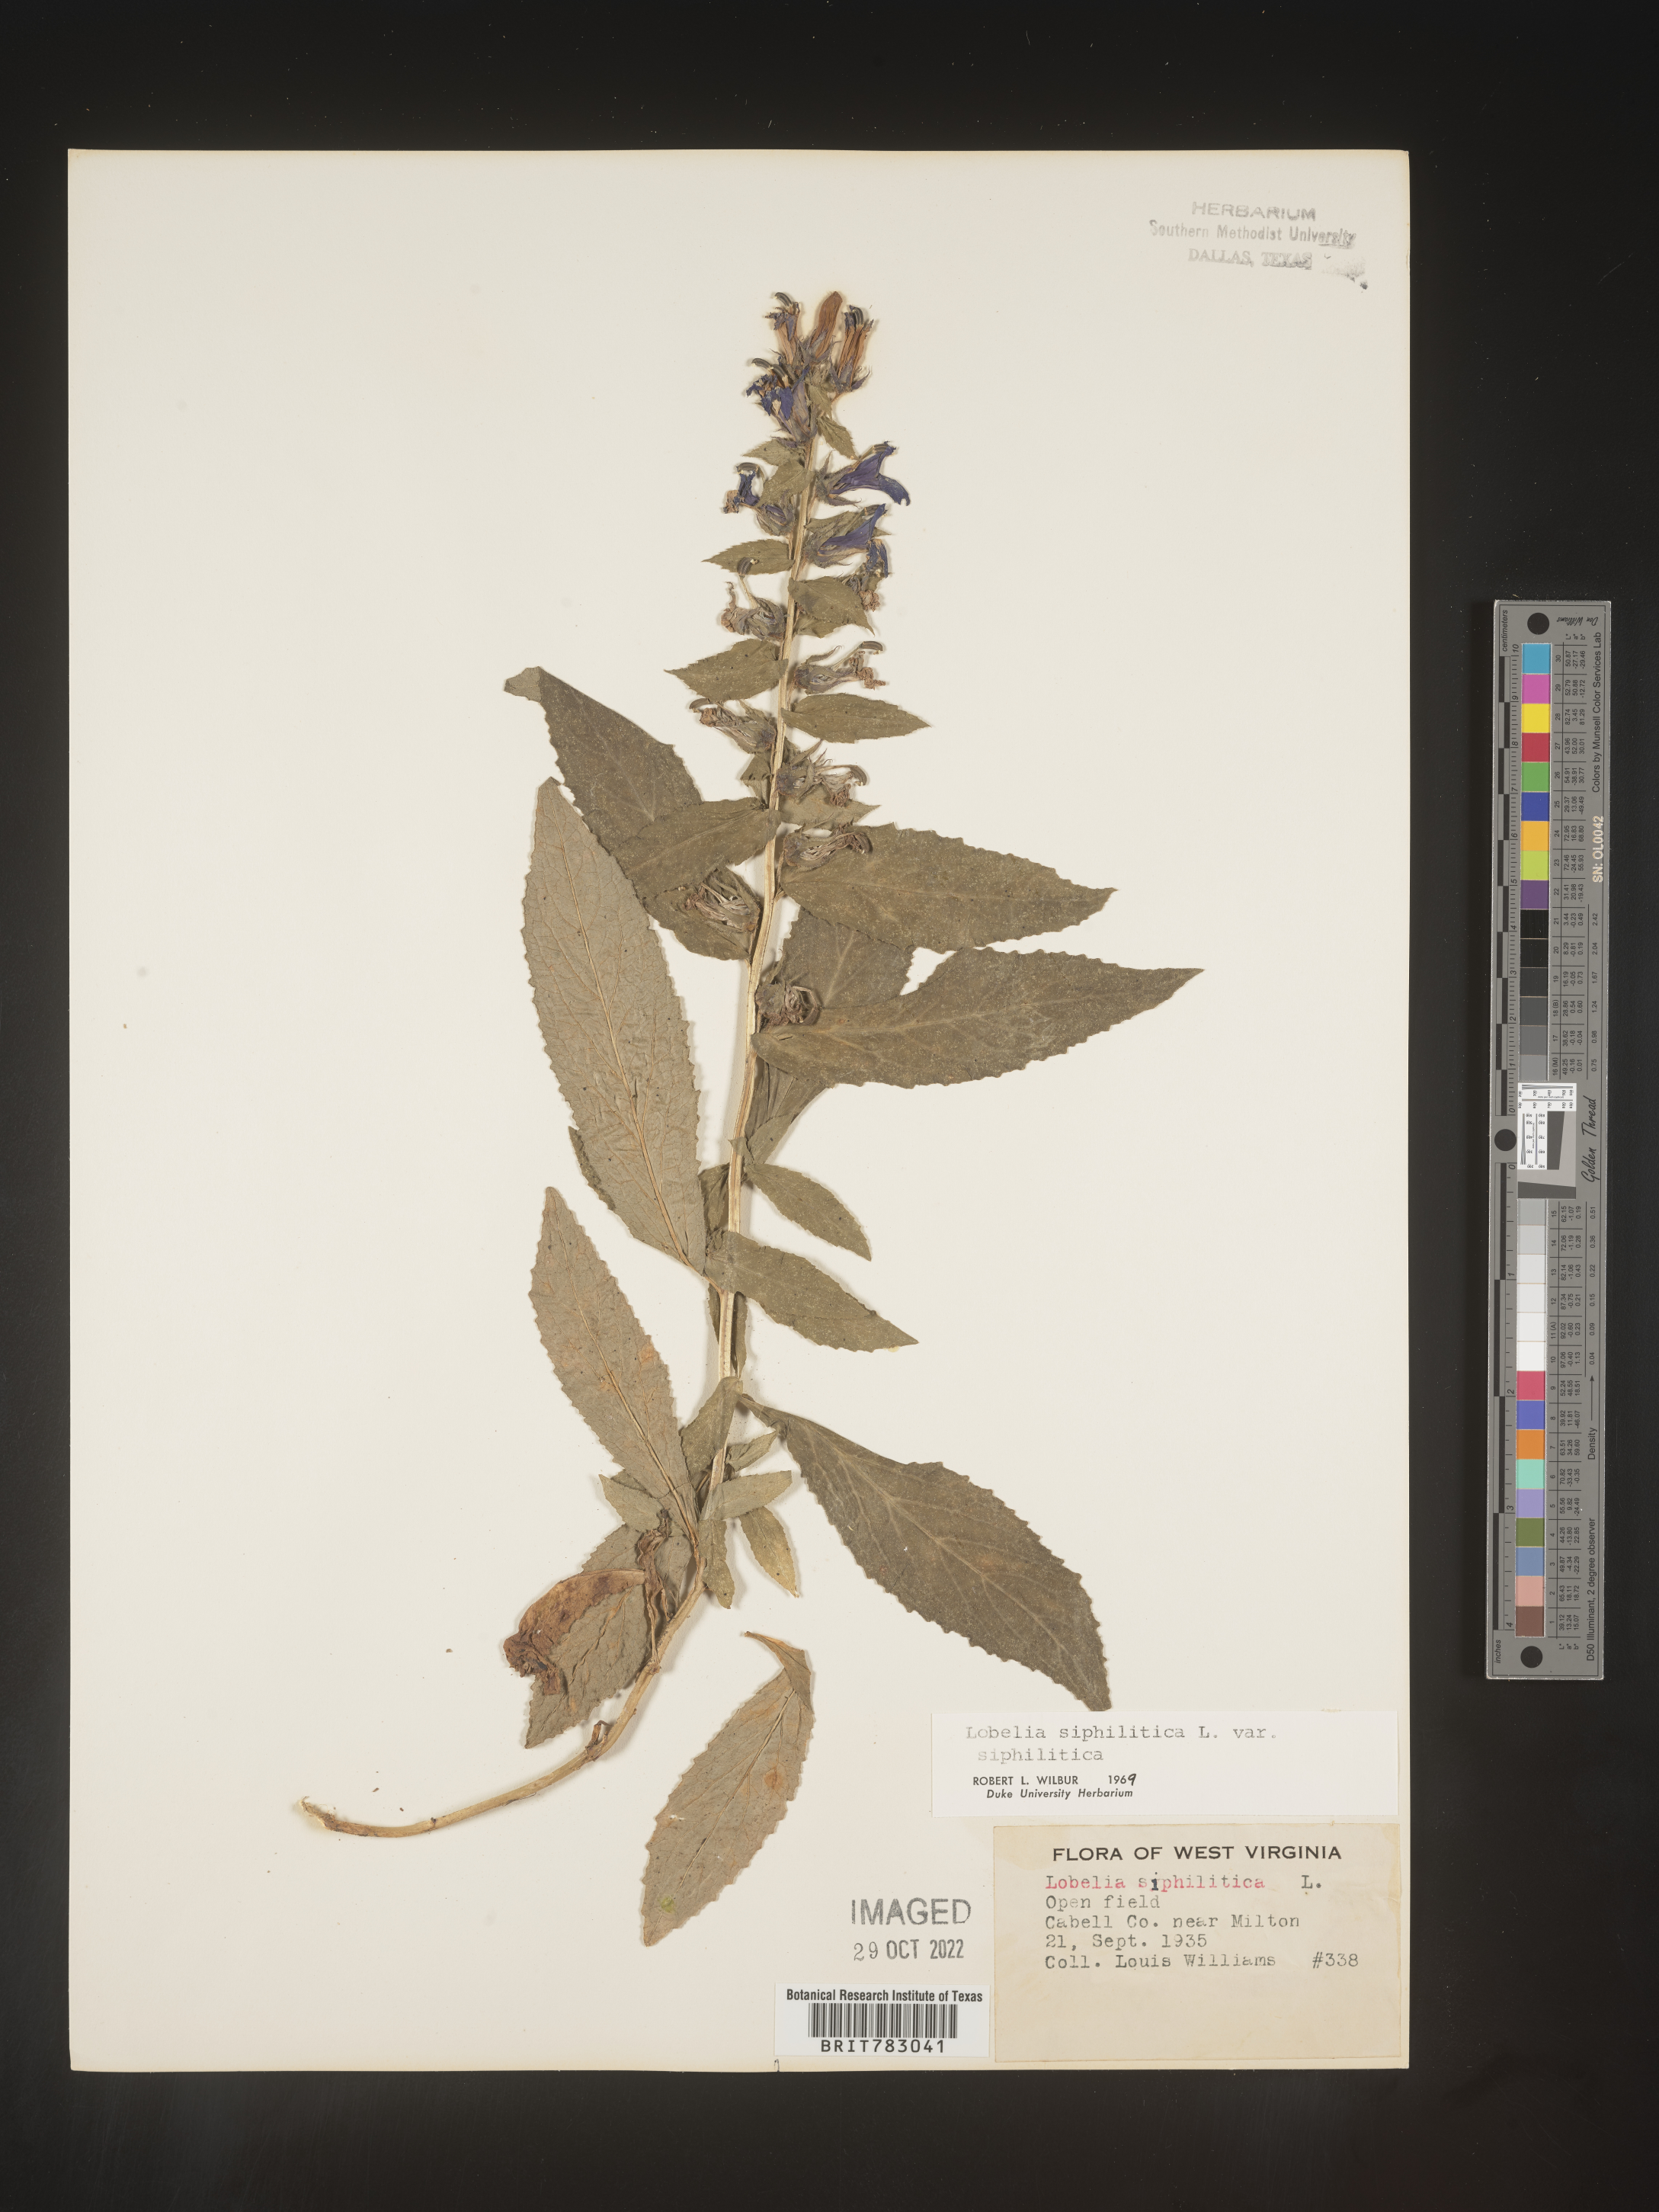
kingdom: Plantae
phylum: Tracheophyta
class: Magnoliopsida
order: Asterales
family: Campanulaceae
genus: Lobelia
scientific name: Lobelia siphilitica
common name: Great lobelia
